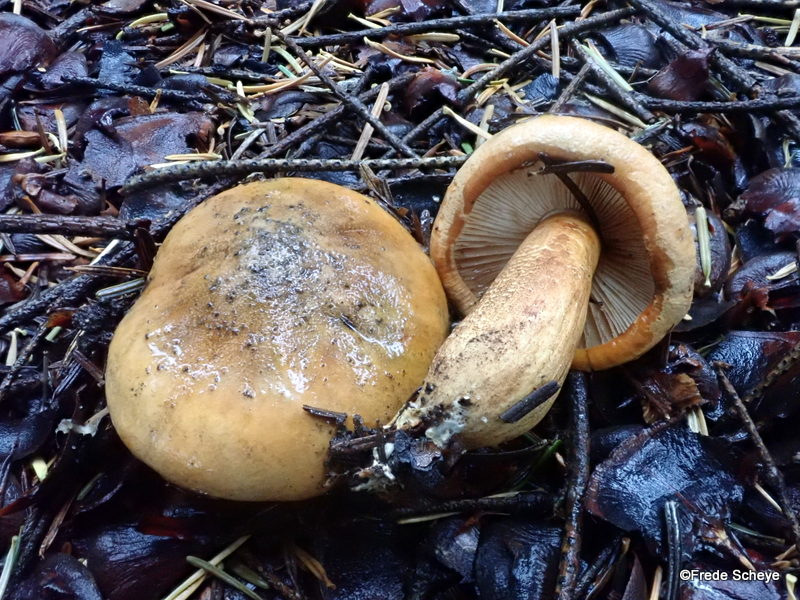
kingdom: Fungi
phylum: Basidiomycota
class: Agaricomycetes
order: Agaricales
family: Tricholomataceae
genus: Tricholoma
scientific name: Tricholoma aurantium
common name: orangegul ridderhat
